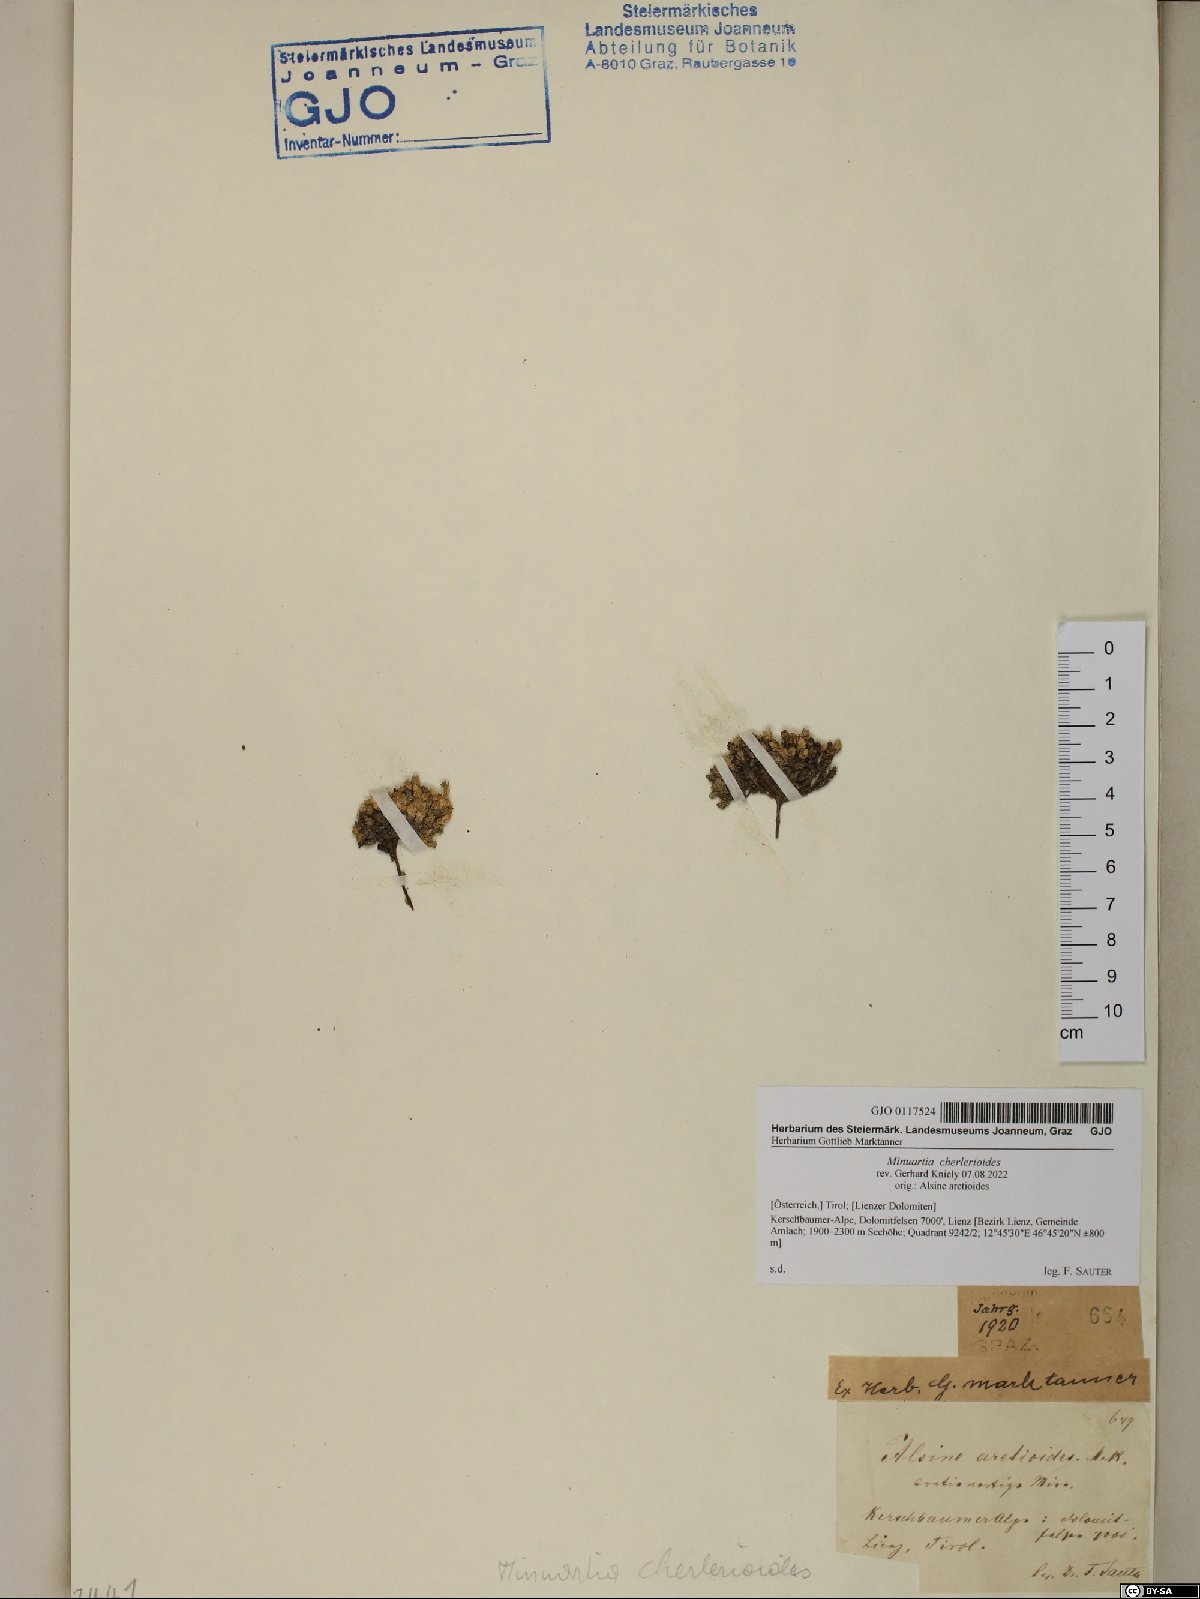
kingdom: Plantae
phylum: Tracheophyta
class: Magnoliopsida
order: Caryophyllales
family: Caryophyllaceae
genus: Facchinia
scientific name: Facchinia cherlerioides
